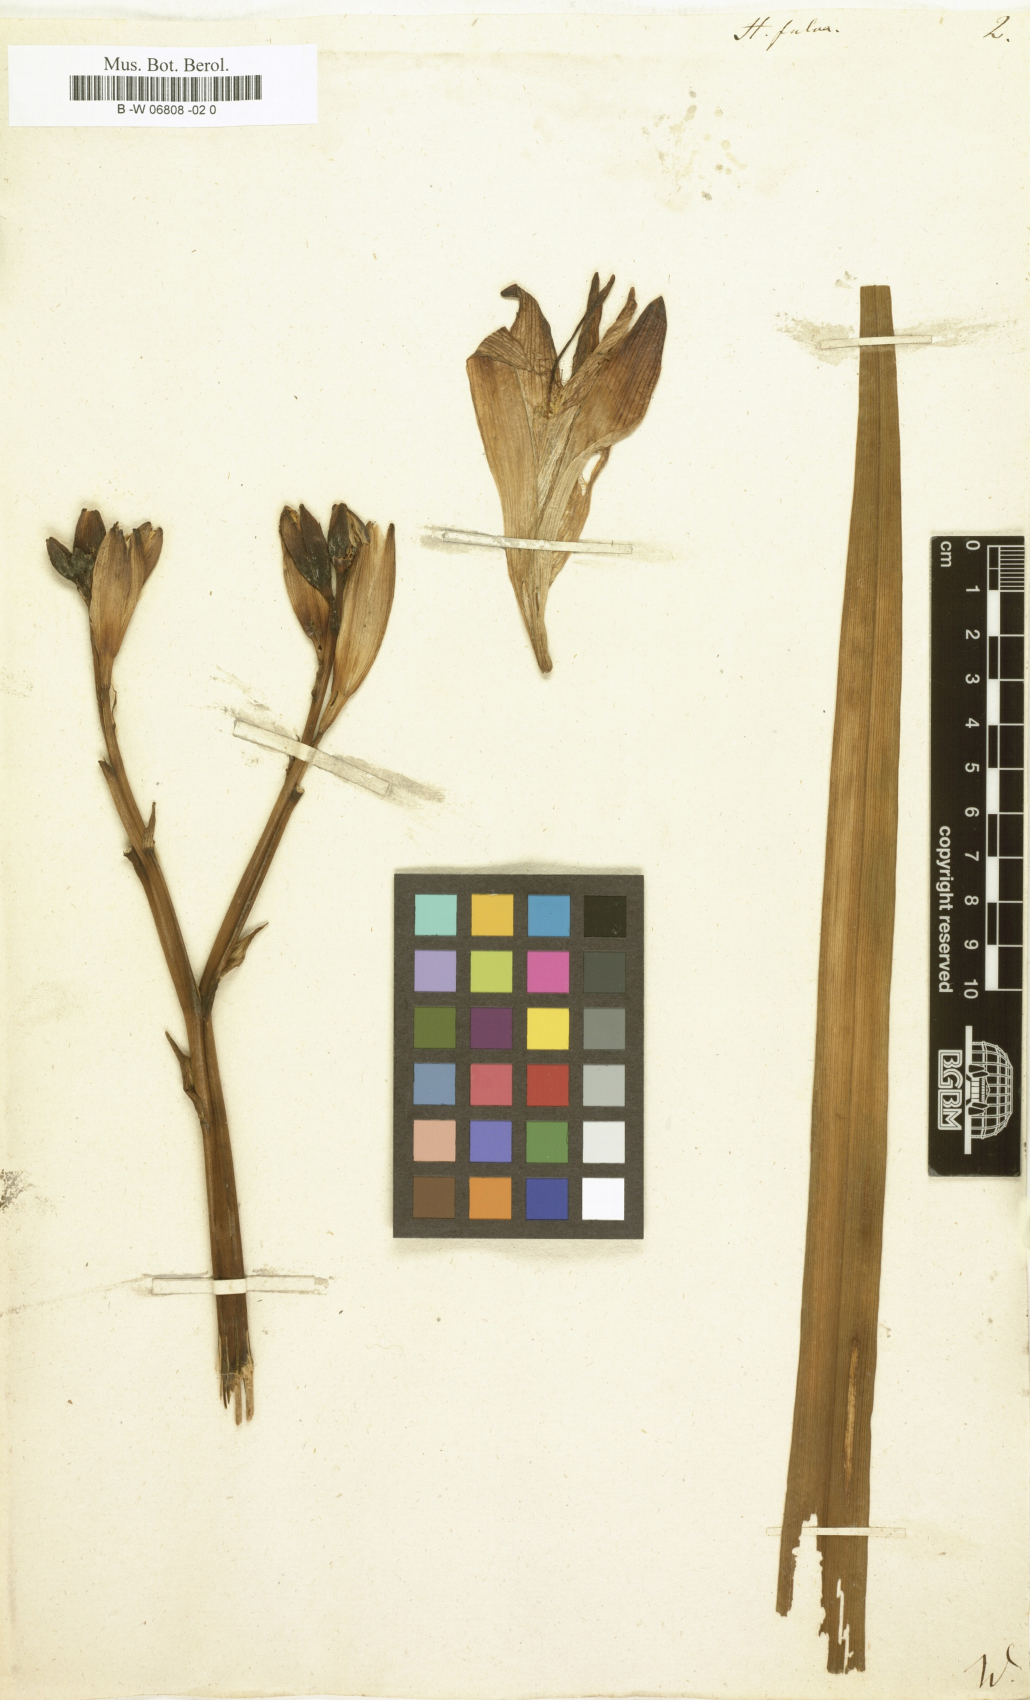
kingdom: Plantae
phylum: Tracheophyta
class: Liliopsida
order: Asparagales
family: Asphodelaceae
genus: Hemerocallis
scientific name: Hemerocallis fulva
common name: Orange day-lily
